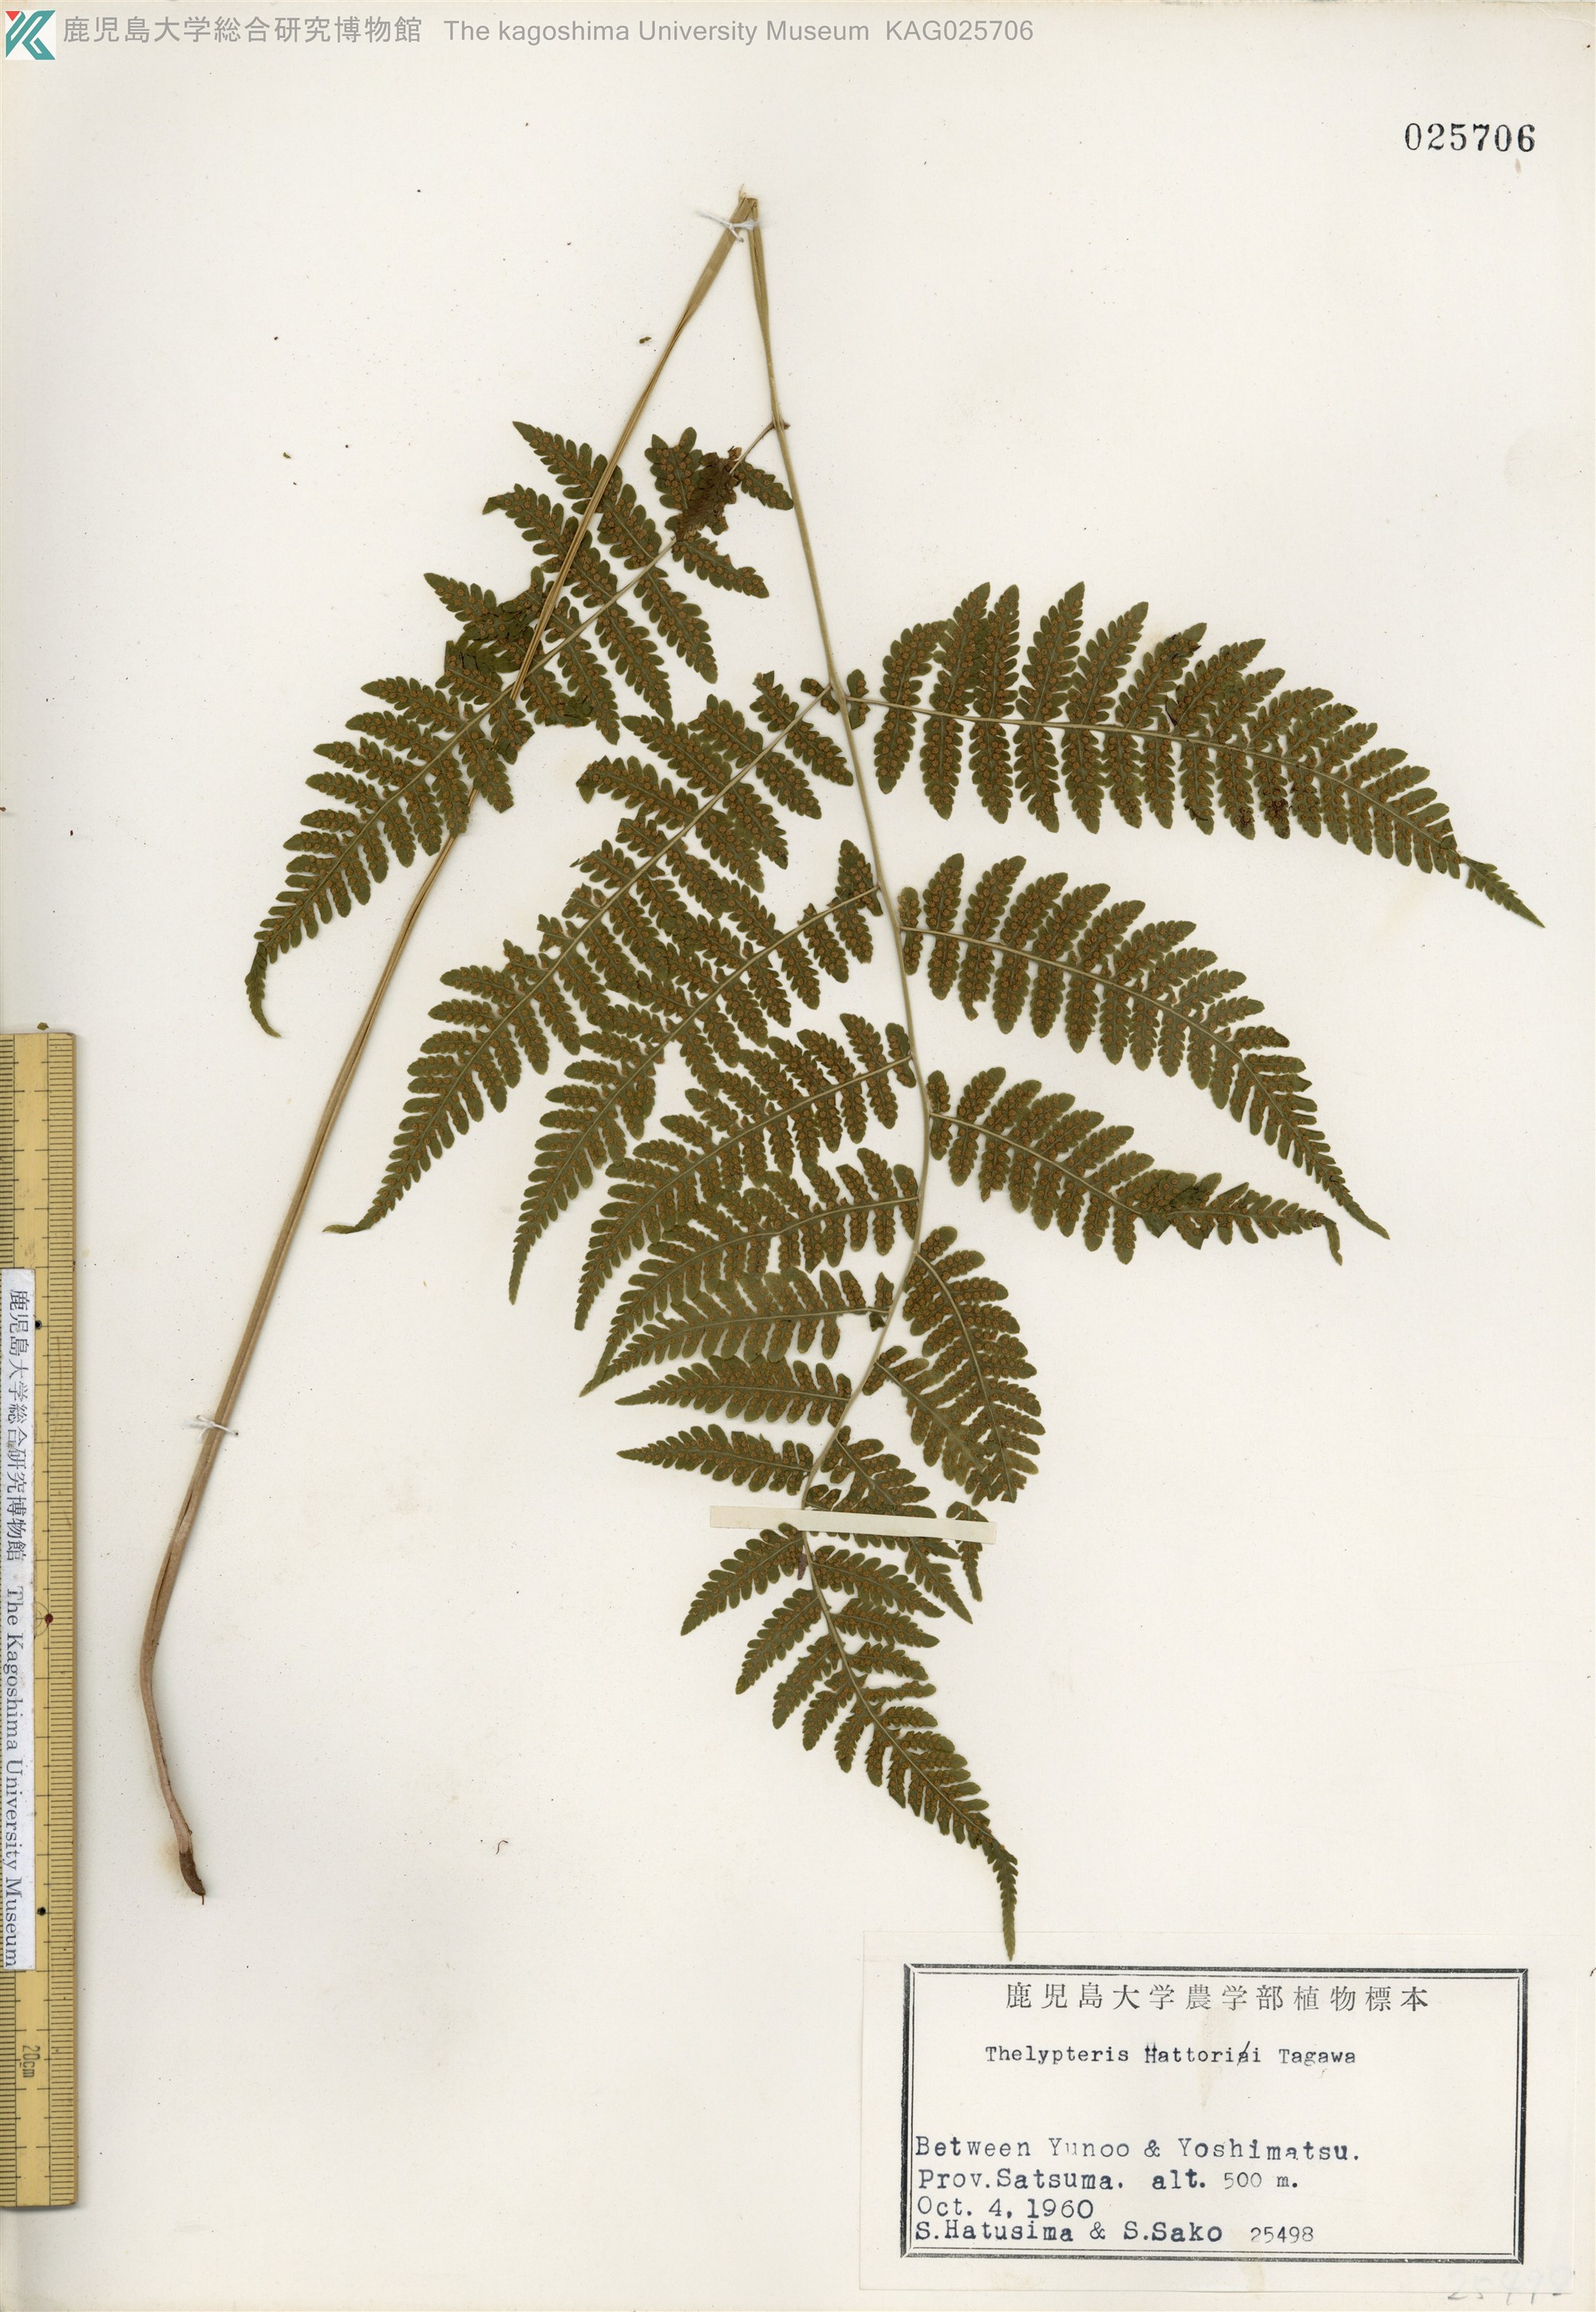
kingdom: Plantae
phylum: Tracheophyta
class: Polypodiopsida
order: Polypodiales
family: Thelypteridaceae
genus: Metathelypteris
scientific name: Metathelypteris hattori
